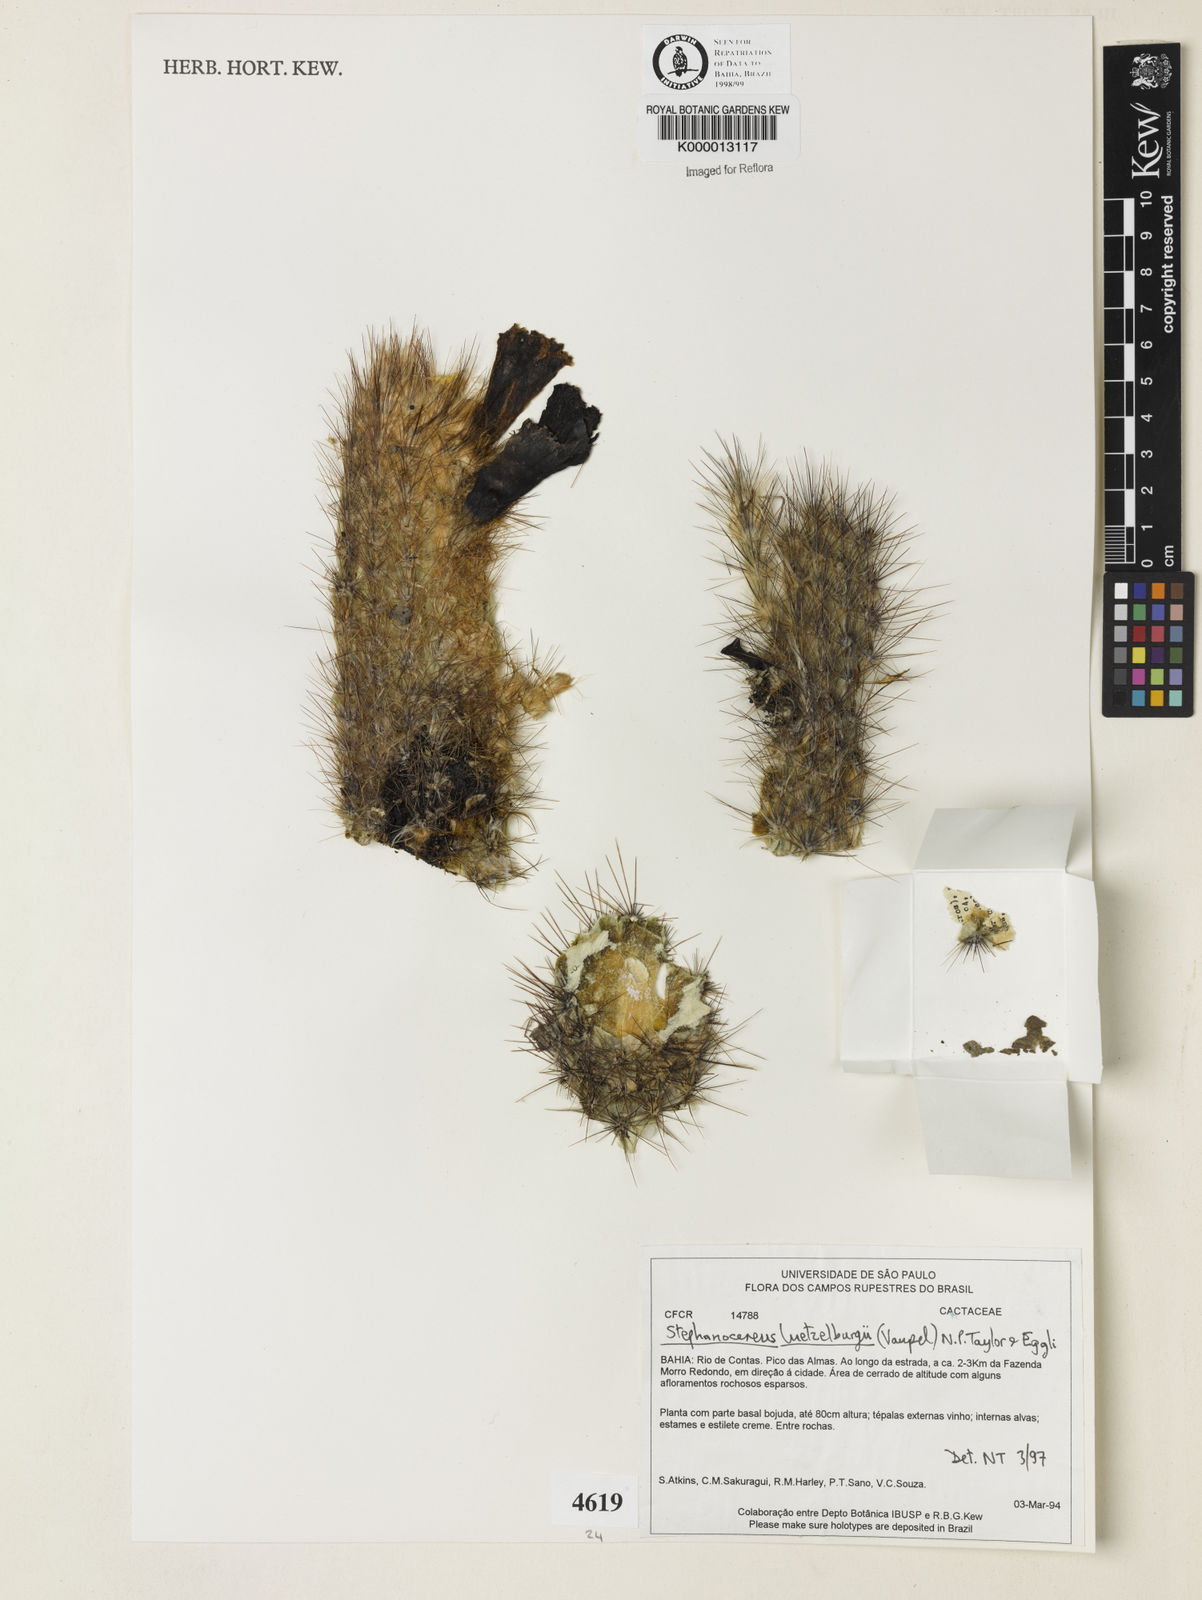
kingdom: Plantae
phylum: Tracheophyta
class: Magnoliopsida
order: Caryophyllales
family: Cactaceae
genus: Lagenosocereus
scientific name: Lagenosocereus luetzelburgii
